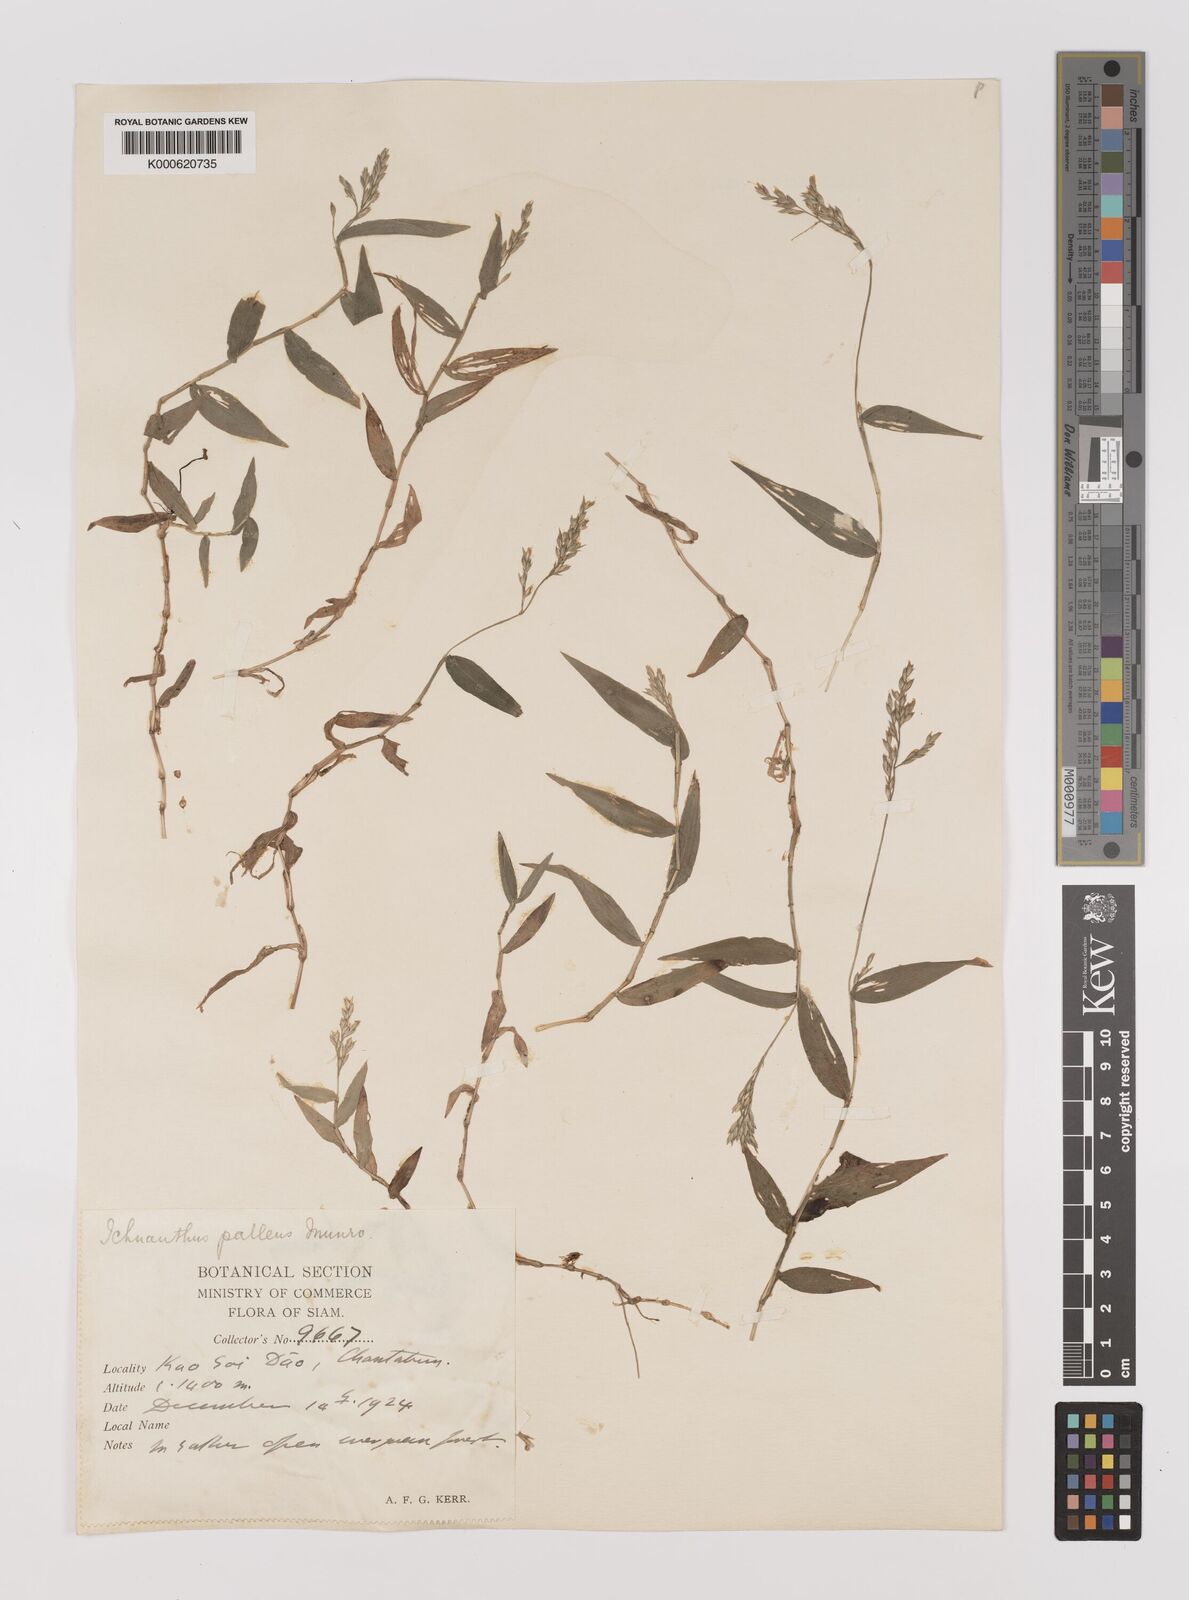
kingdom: Plantae
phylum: Tracheophyta
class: Liliopsida
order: Poales
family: Poaceae
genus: Ichnanthus
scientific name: Ichnanthus
